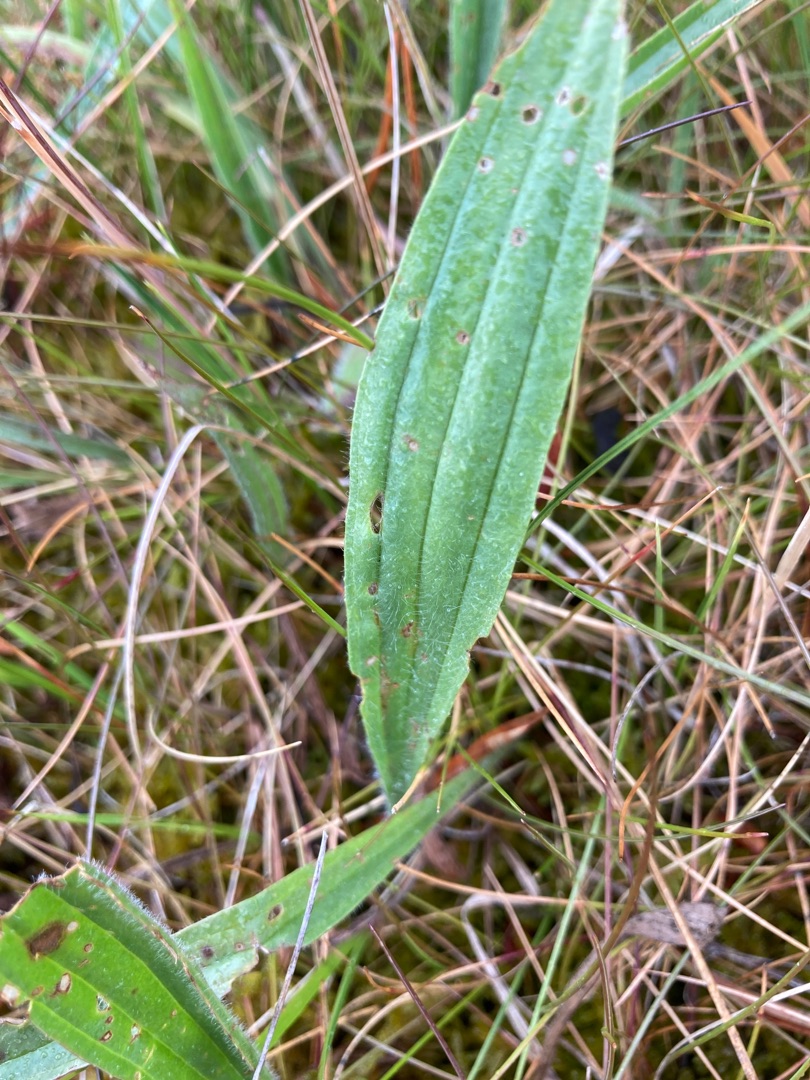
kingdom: Plantae
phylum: Tracheophyta
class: Magnoliopsida
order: Lamiales
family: Plantaginaceae
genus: Plantago
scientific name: Plantago lanceolata
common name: Lancet-vejbred
